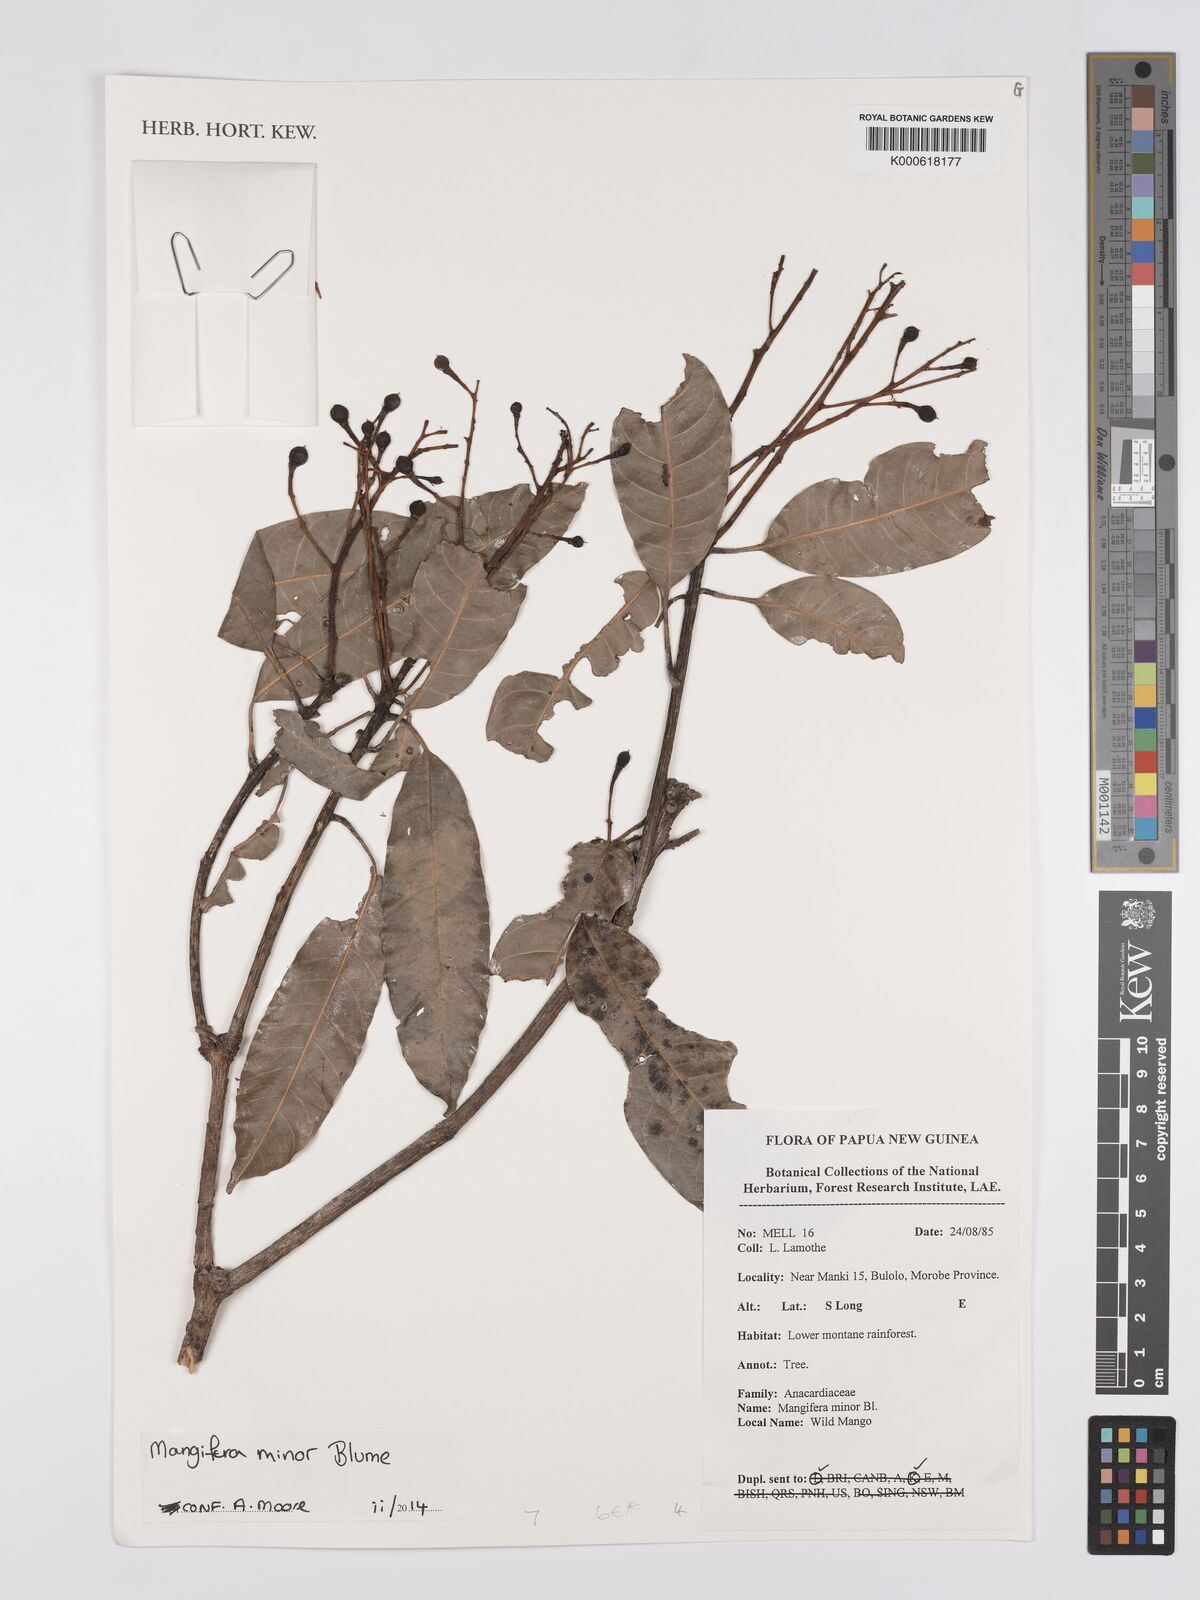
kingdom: Plantae
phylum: Tracheophyta
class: Magnoliopsida
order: Sapindales
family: Anacardiaceae
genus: Mangifera
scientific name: Mangifera minor
